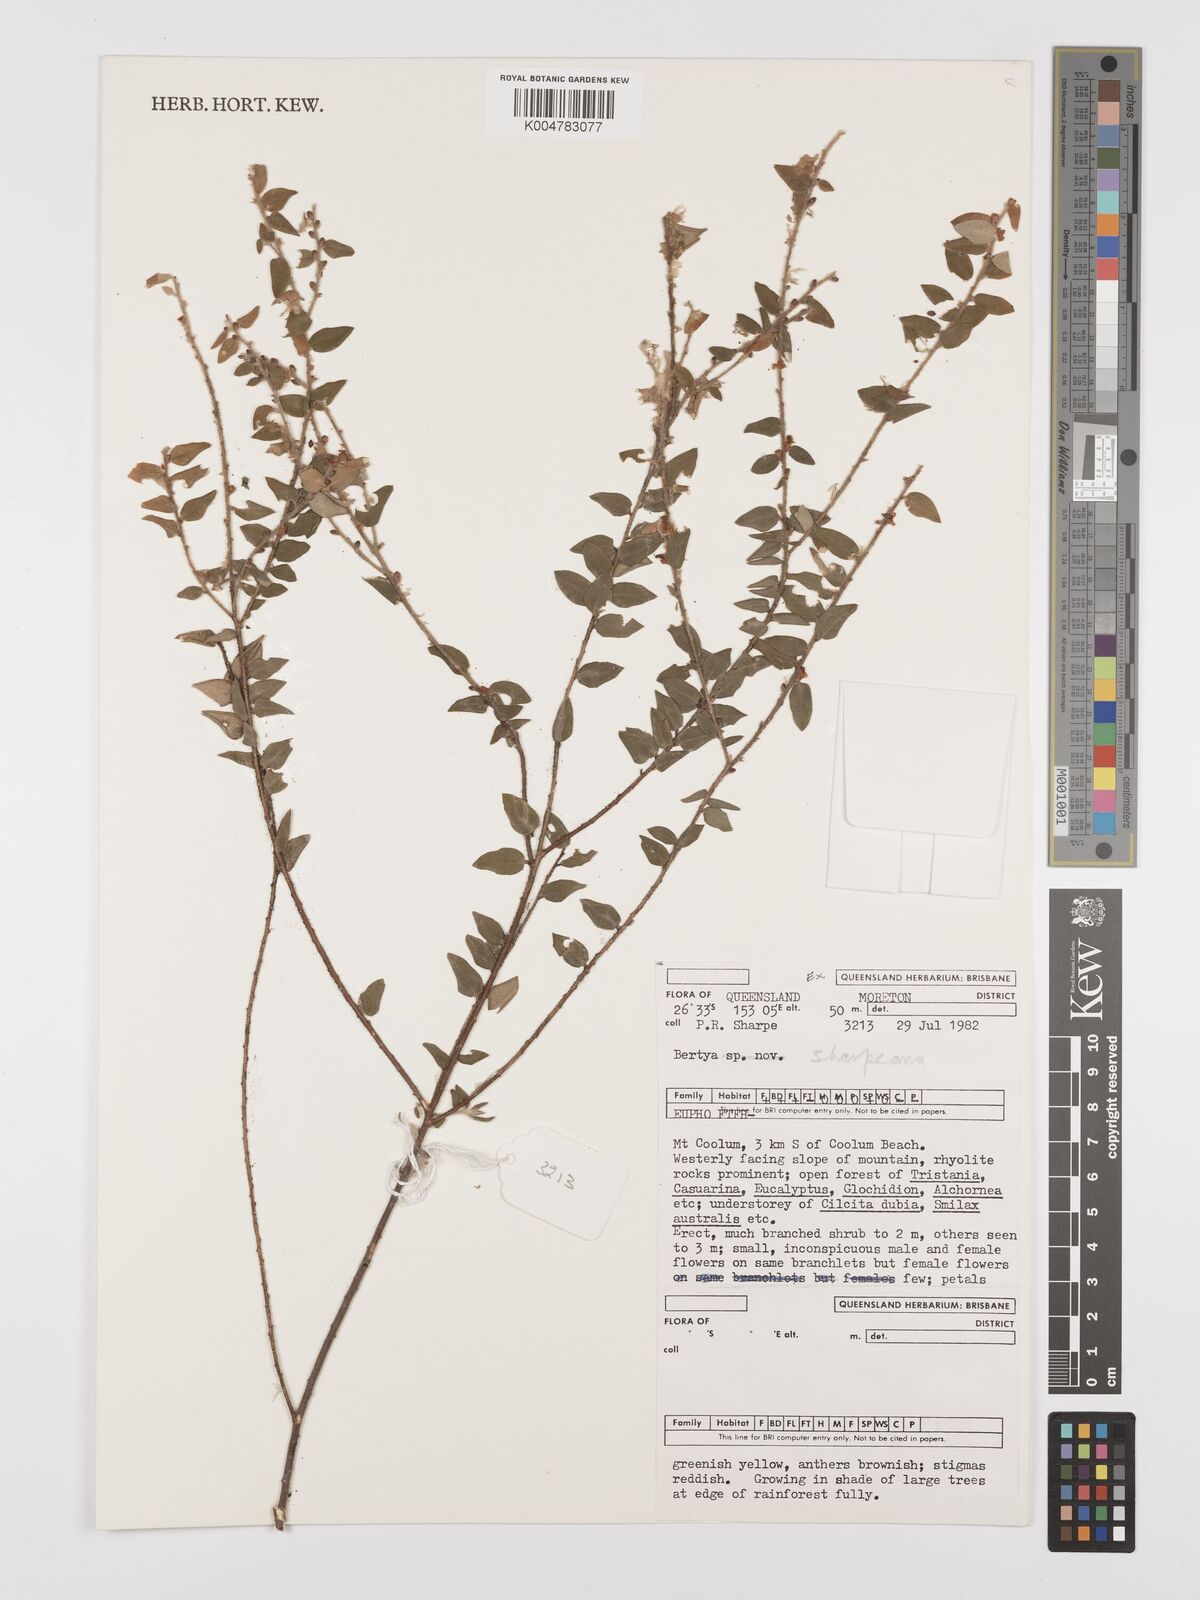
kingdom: Plantae
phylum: Tracheophyta
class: Magnoliopsida
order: Malpighiales
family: Euphorbiaceae
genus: Bertya
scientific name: Bertya sharpeana
